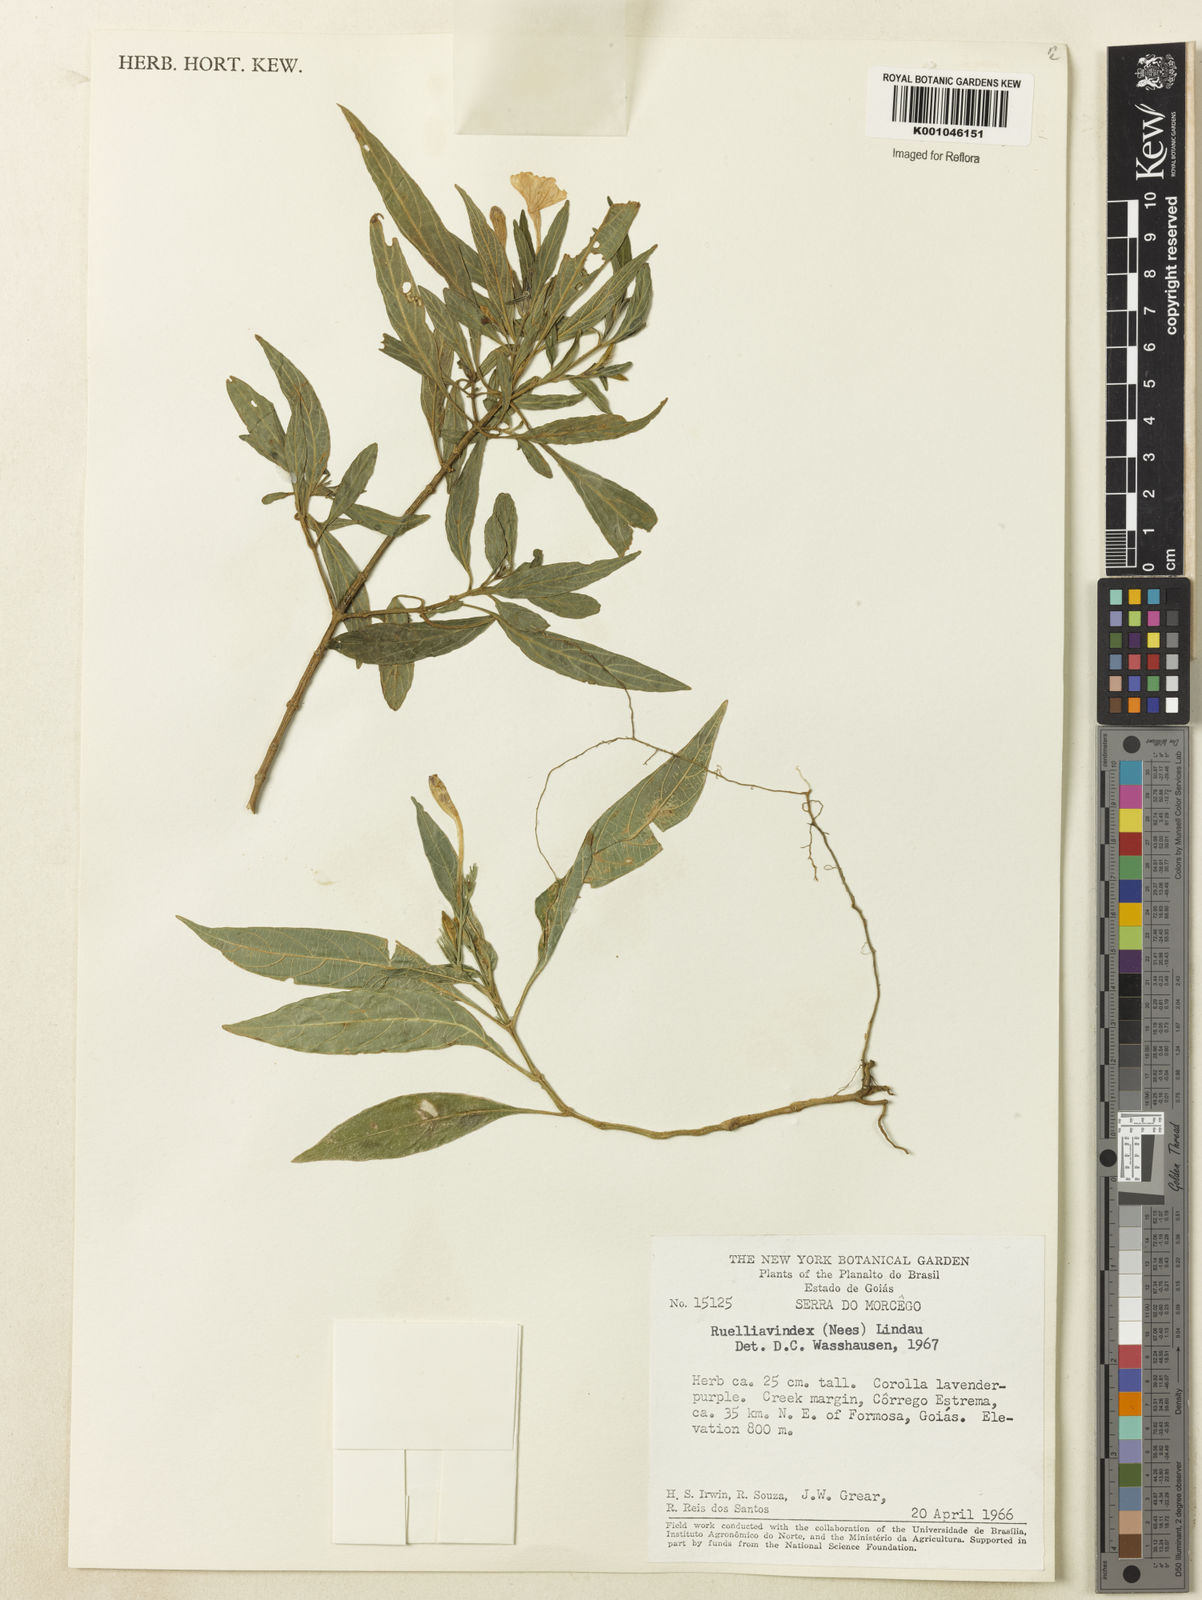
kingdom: Plantae
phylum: Tracheophyta
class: Magnoliopsida
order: Lamiales
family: Acanthaceae
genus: Ruellia
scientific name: Ruellia geminiflora
